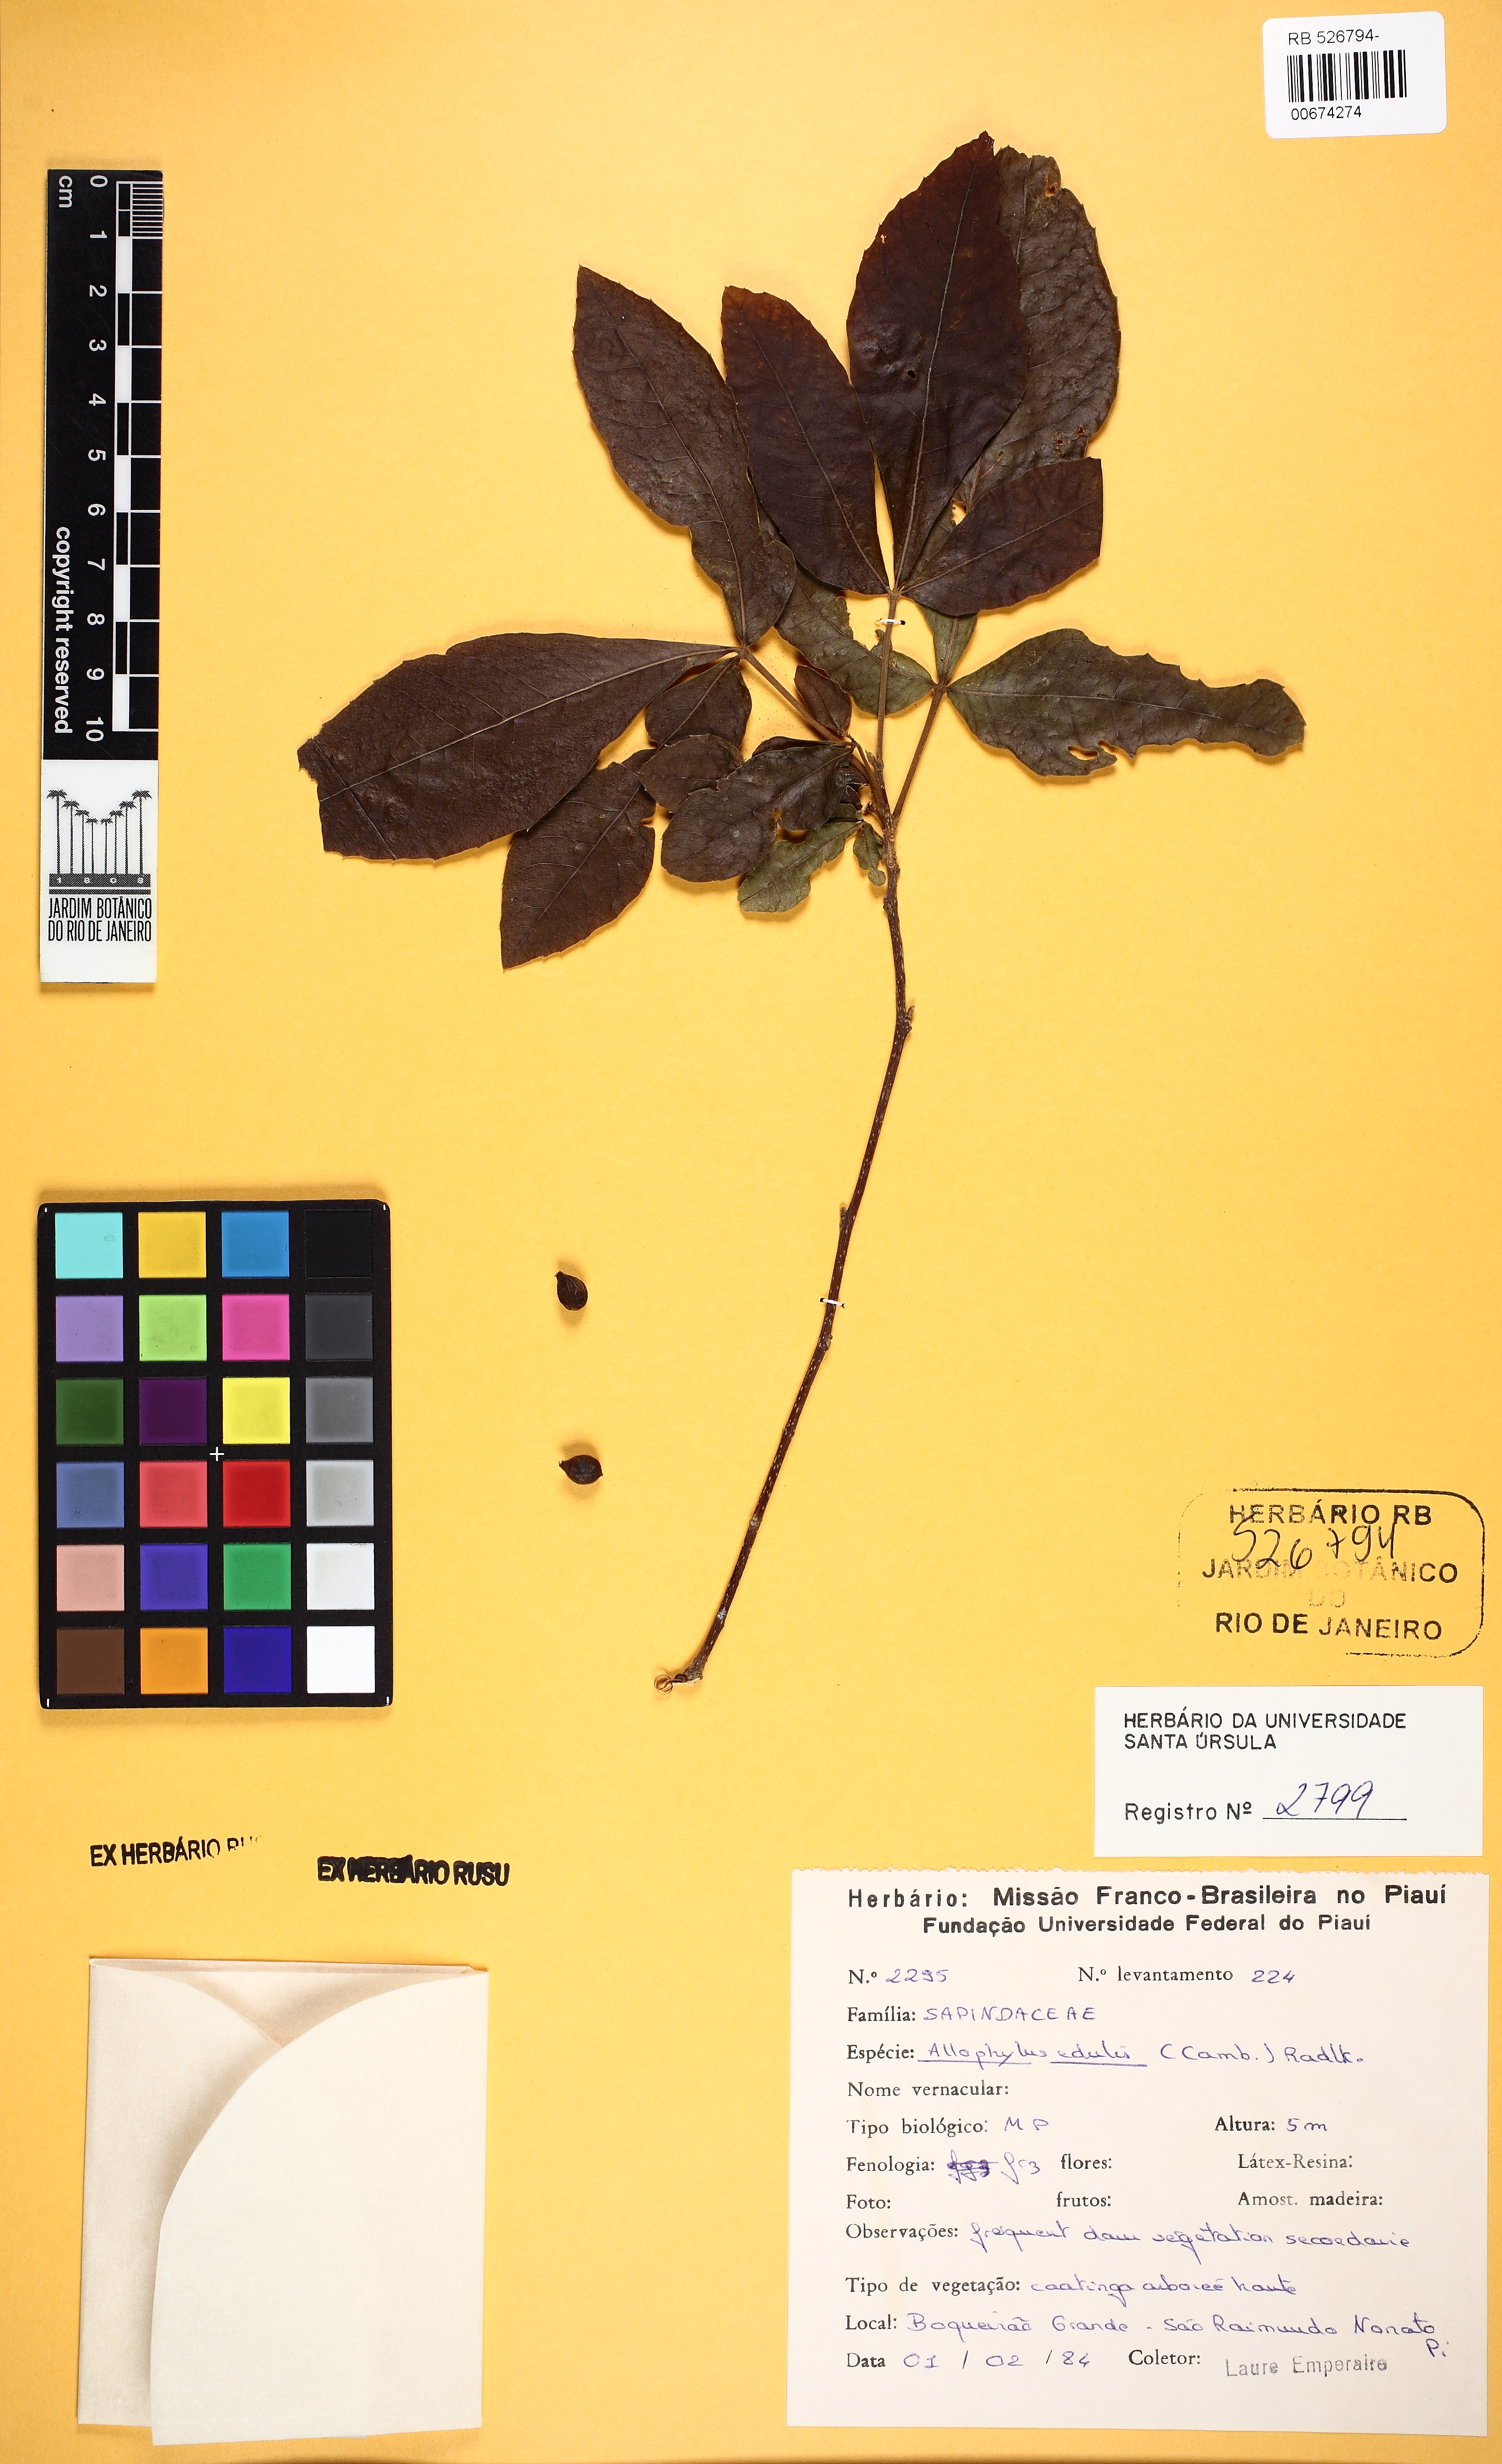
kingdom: Plantae
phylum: Tracheophyta
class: Magnoliopsida
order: Sapindales
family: Sapindaceae
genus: Allophylus
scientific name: Allophylus puberulus
